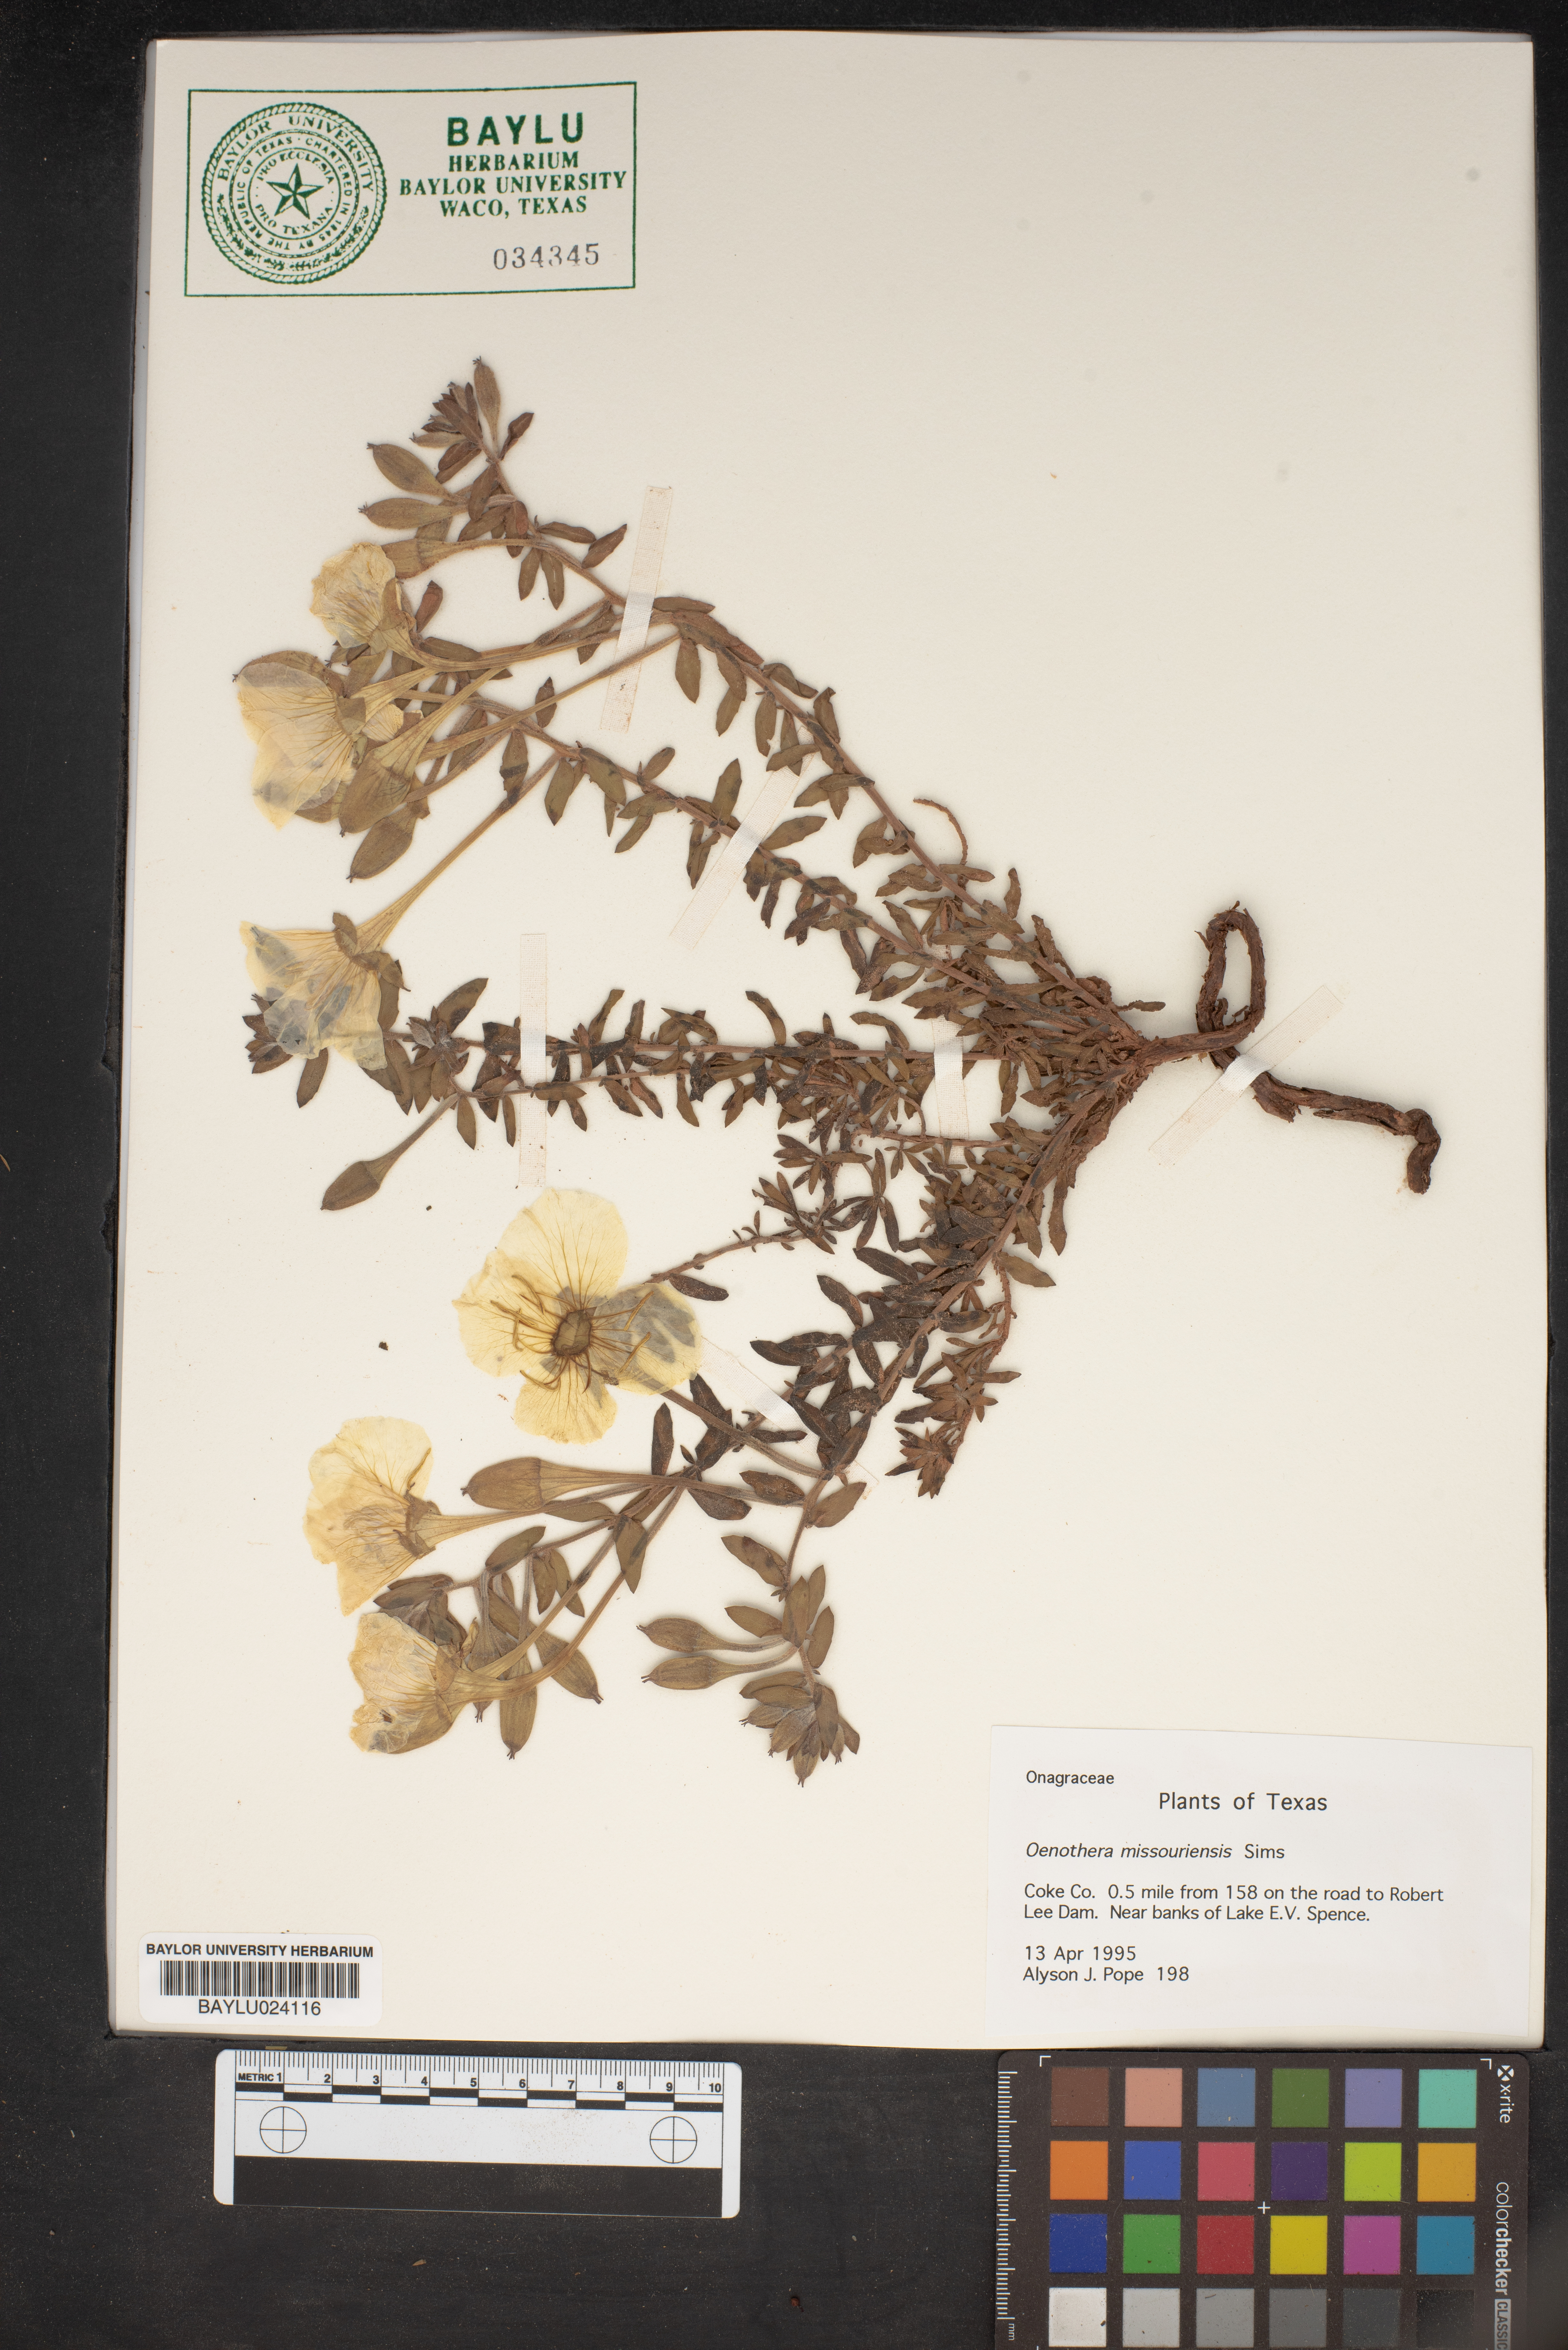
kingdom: Plantae
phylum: Tracheophyta
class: Magnoliopsida
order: Myrtales
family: Onagraceae
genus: Oenothera
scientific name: Oenothera macrocarpa
